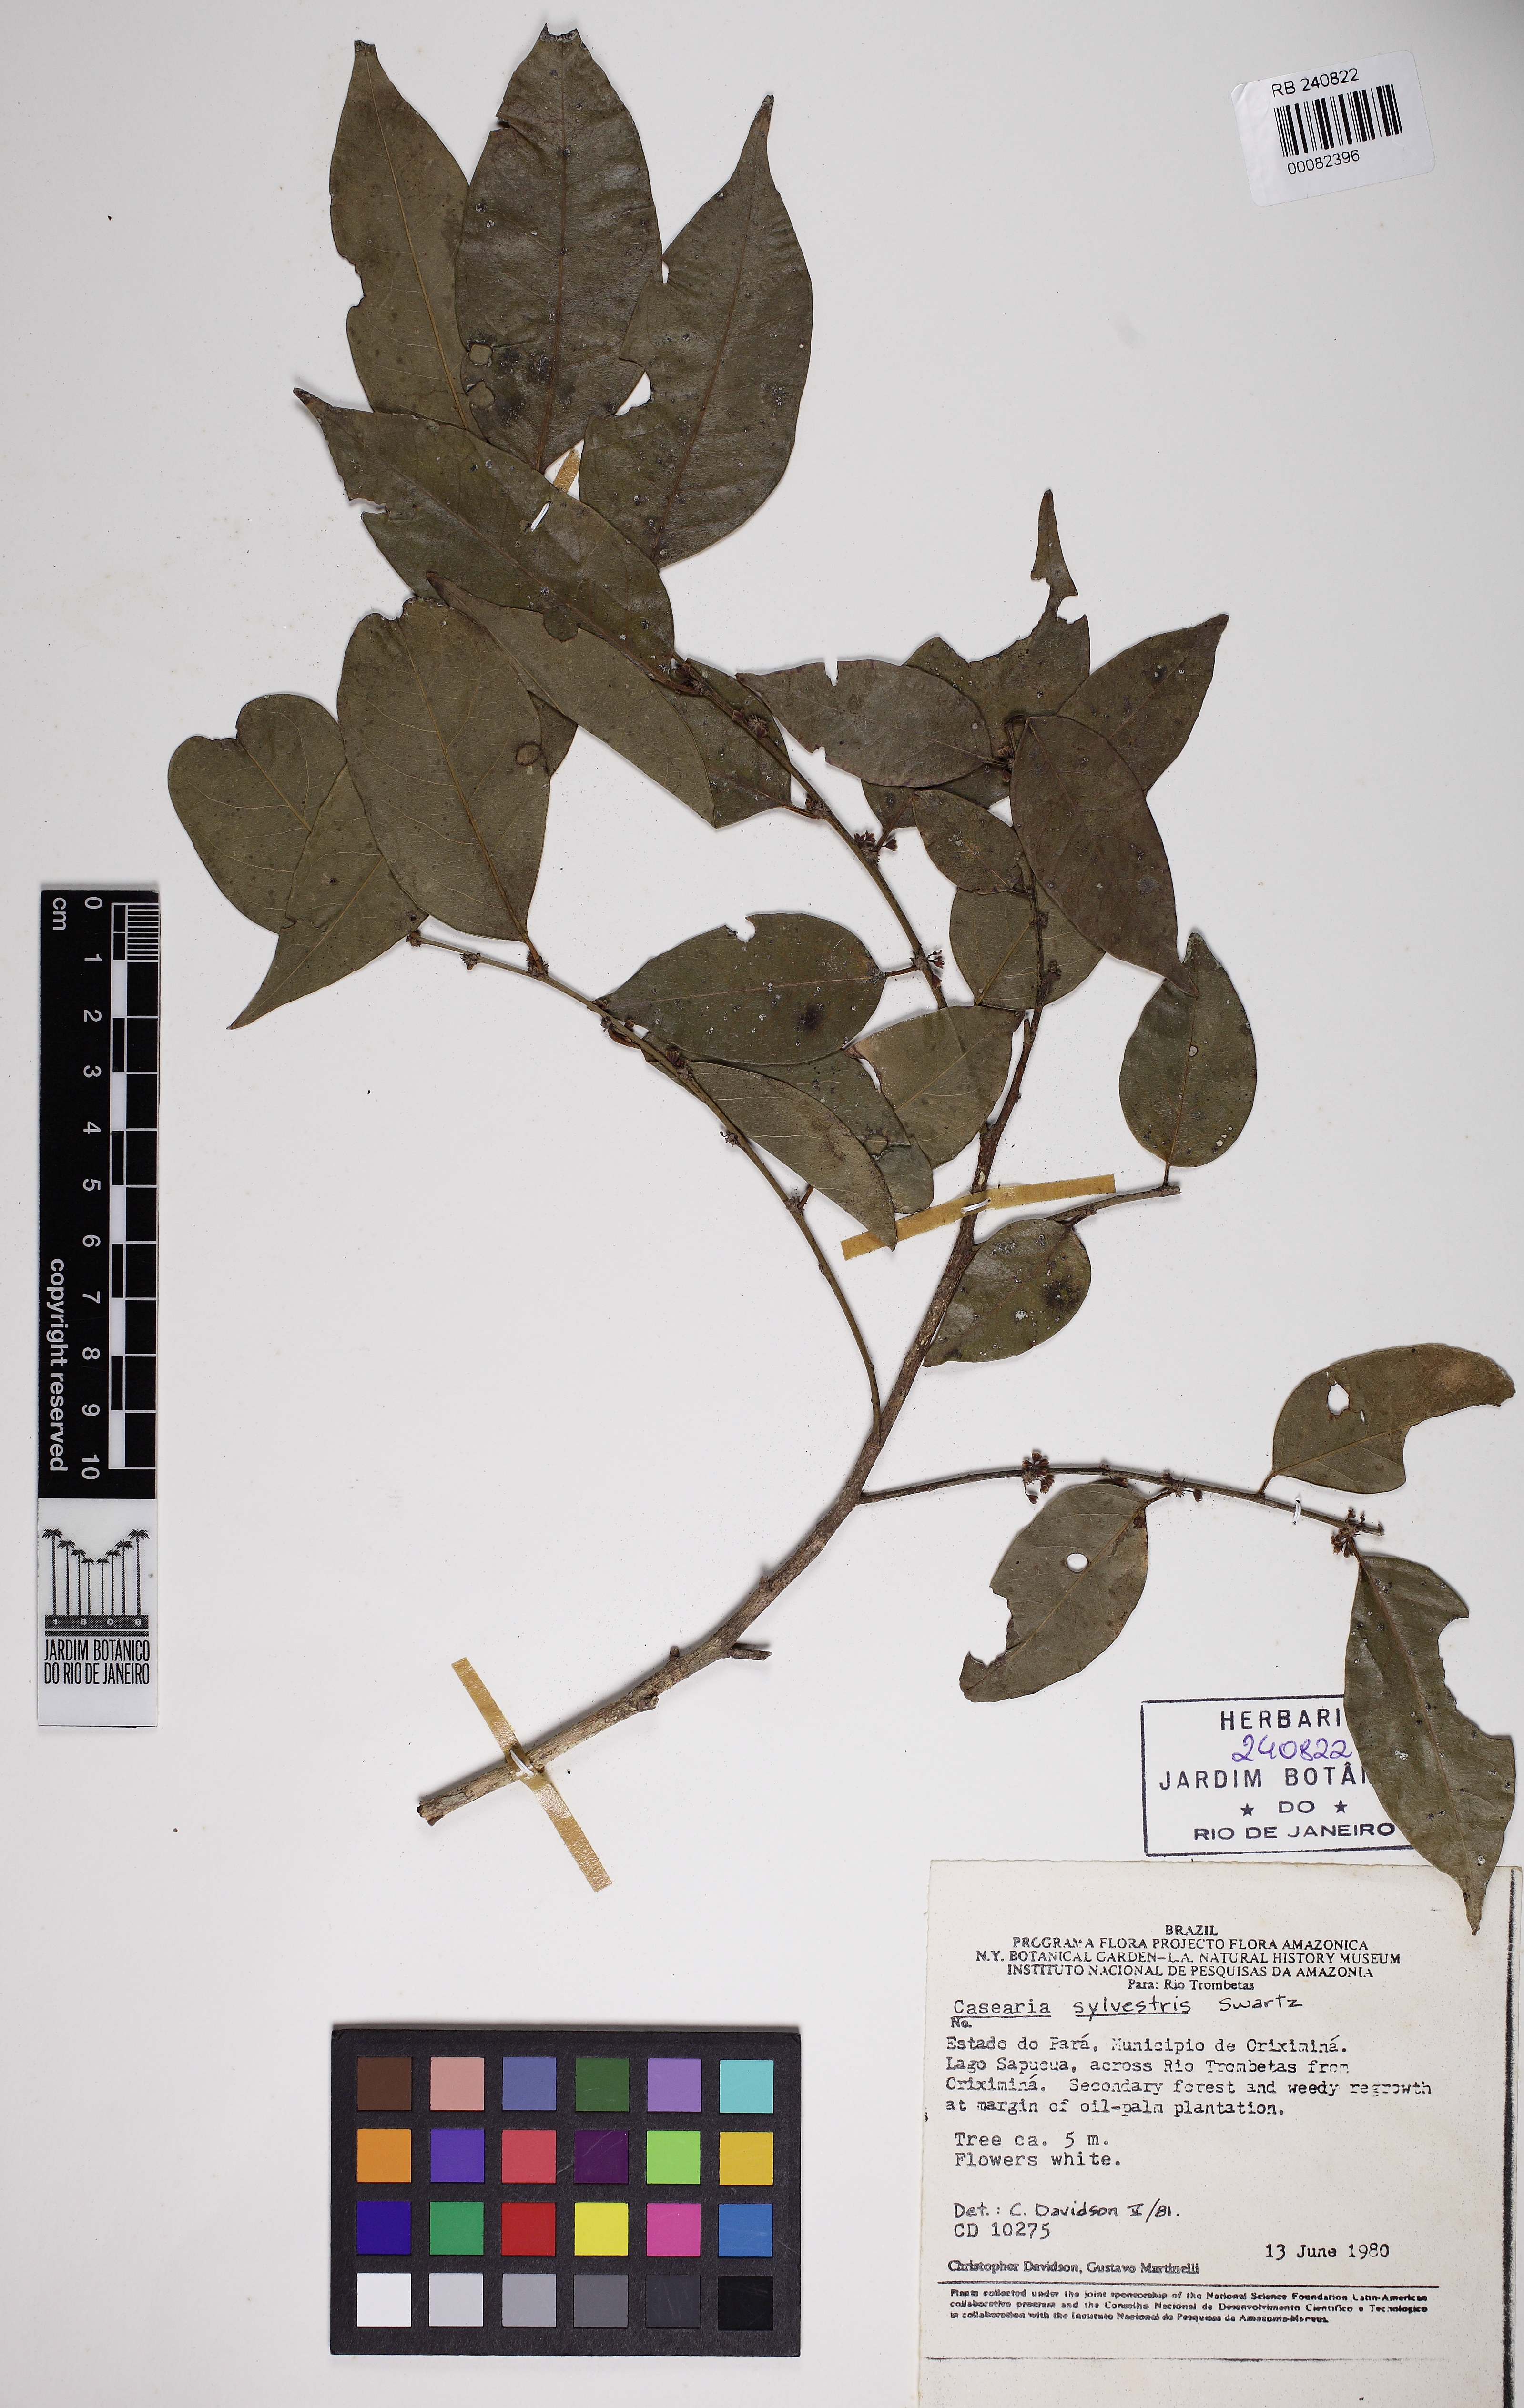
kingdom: Plantae
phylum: Tracheophyta
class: Magnoliopsida
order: Malpighiales
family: Salicaceae
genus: Casearia
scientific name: Casearia sylvestris
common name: Wild sage
